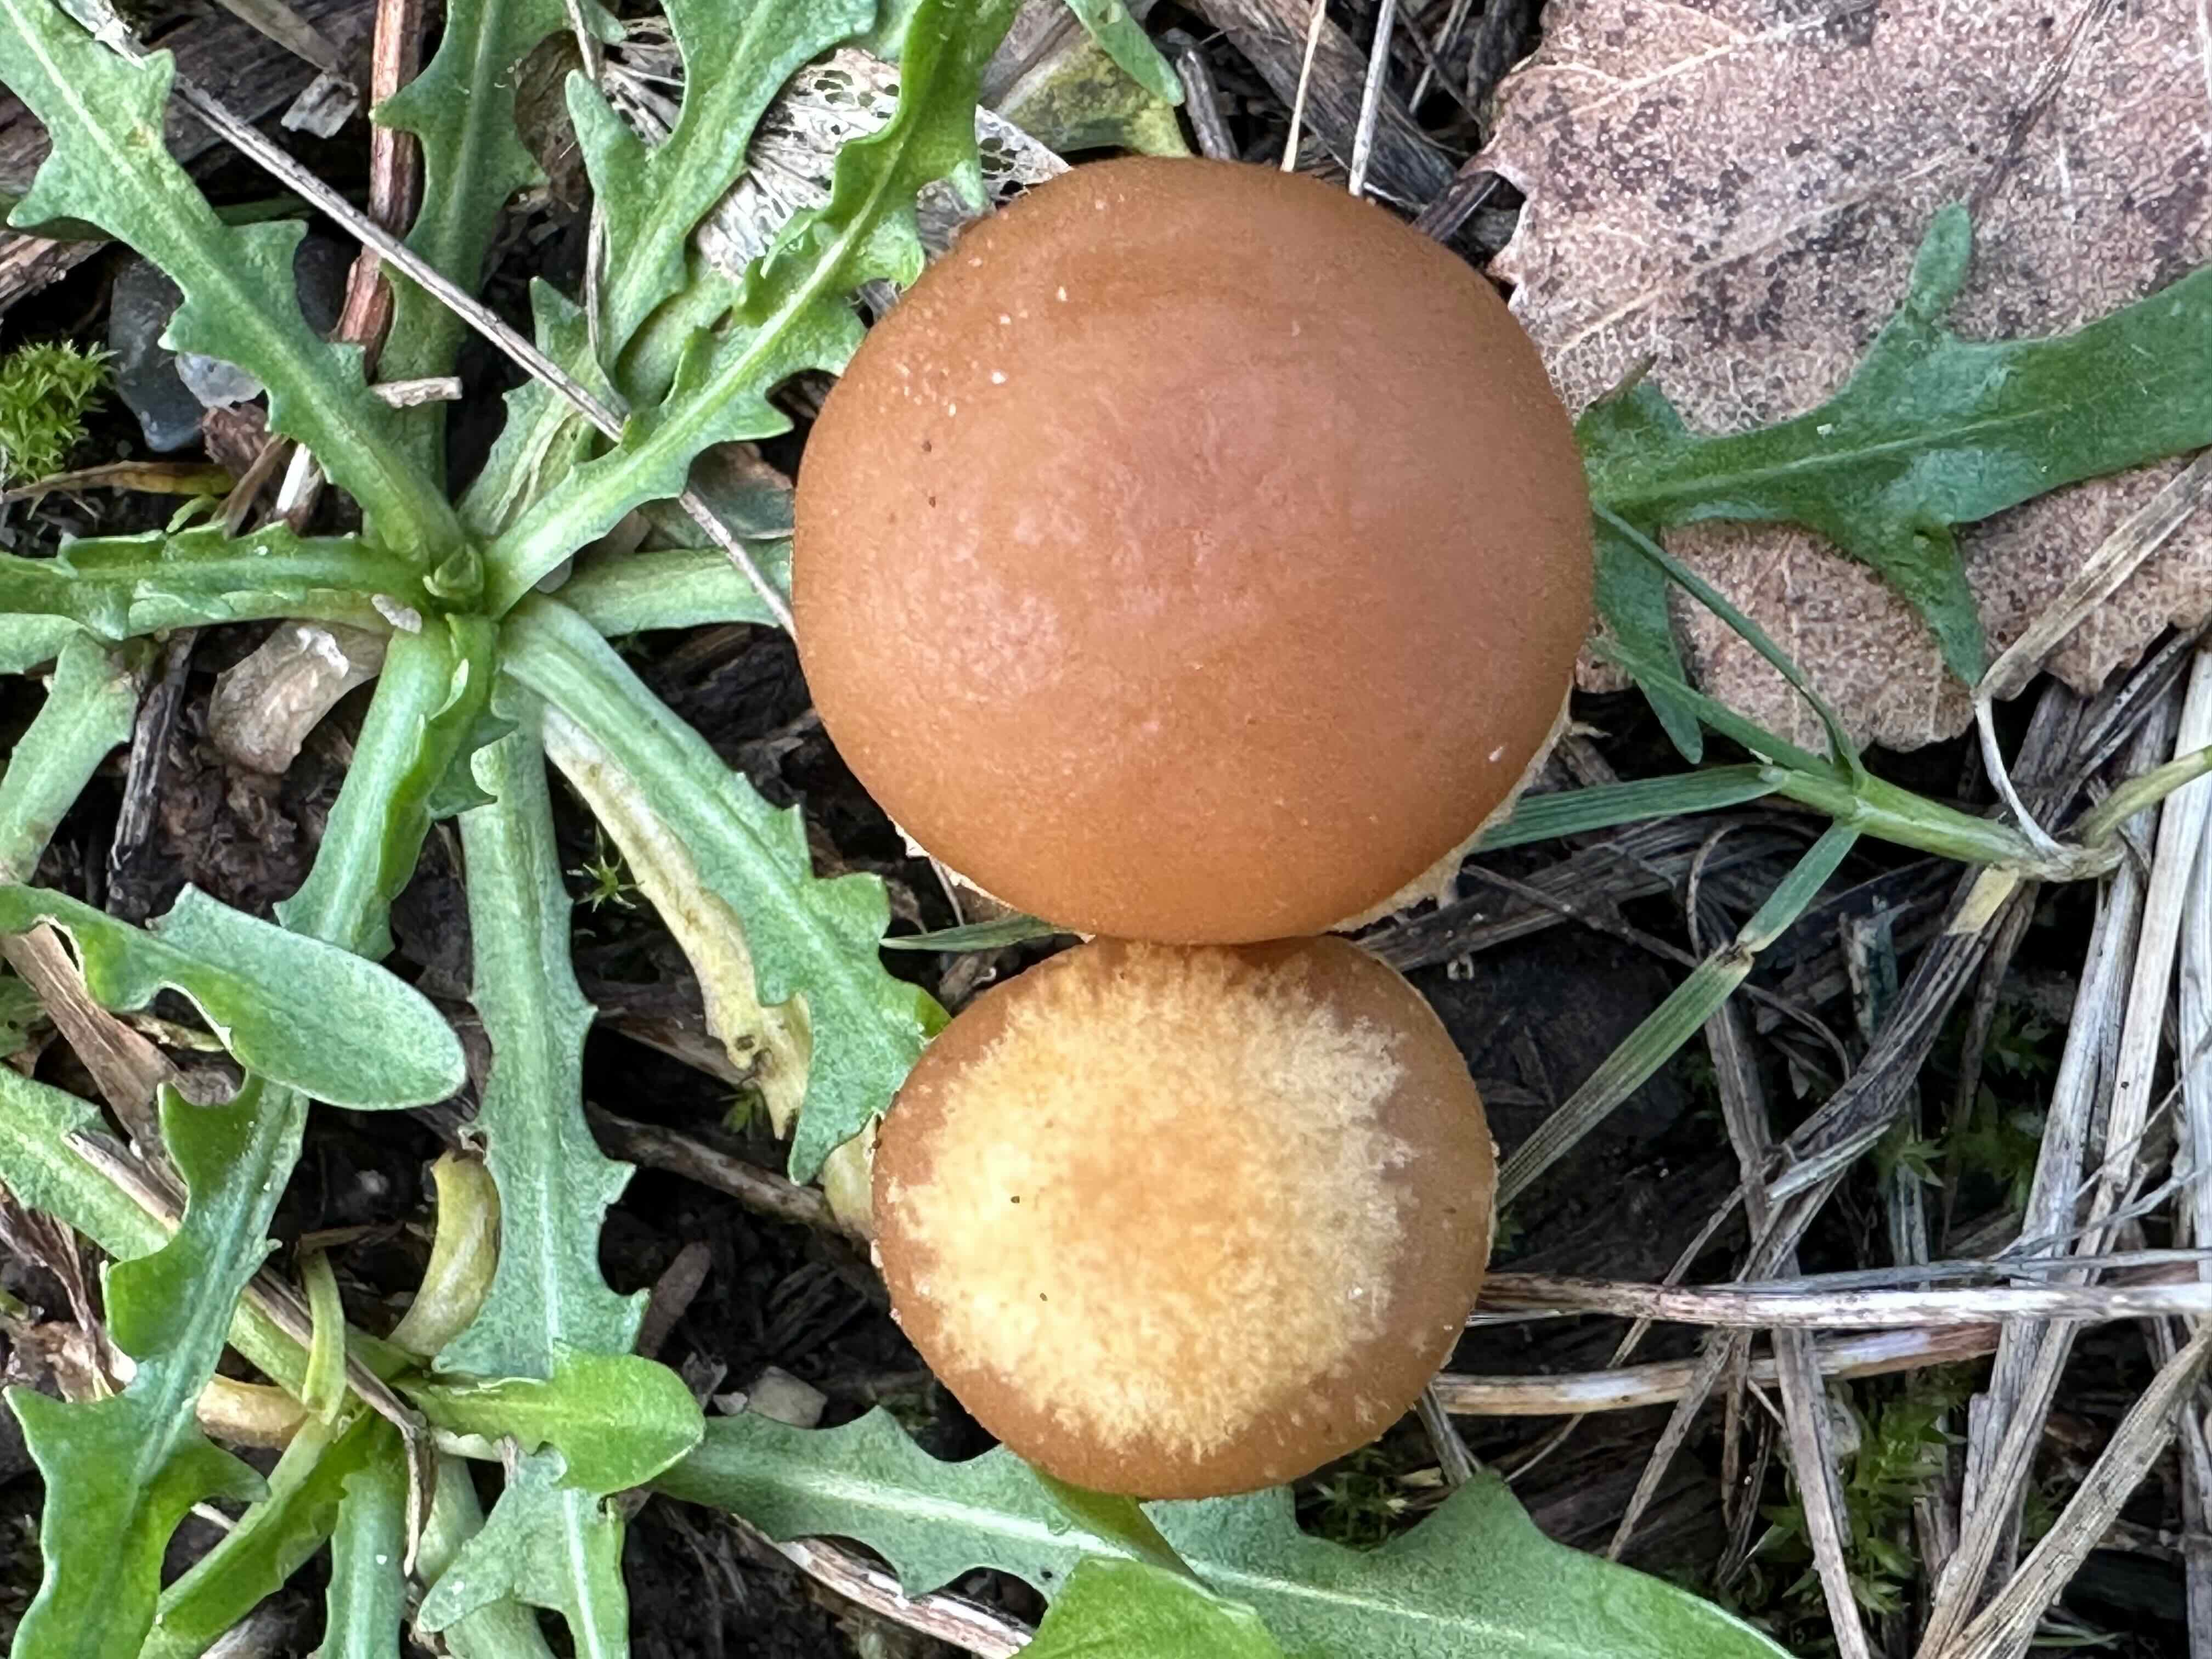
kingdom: Fungi
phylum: Basidiomycota
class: Agaricomycetes
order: Agaricales
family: Tubariaceae
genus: Tubaria
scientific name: Tubaria furfuracea
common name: kliddet fnughat
